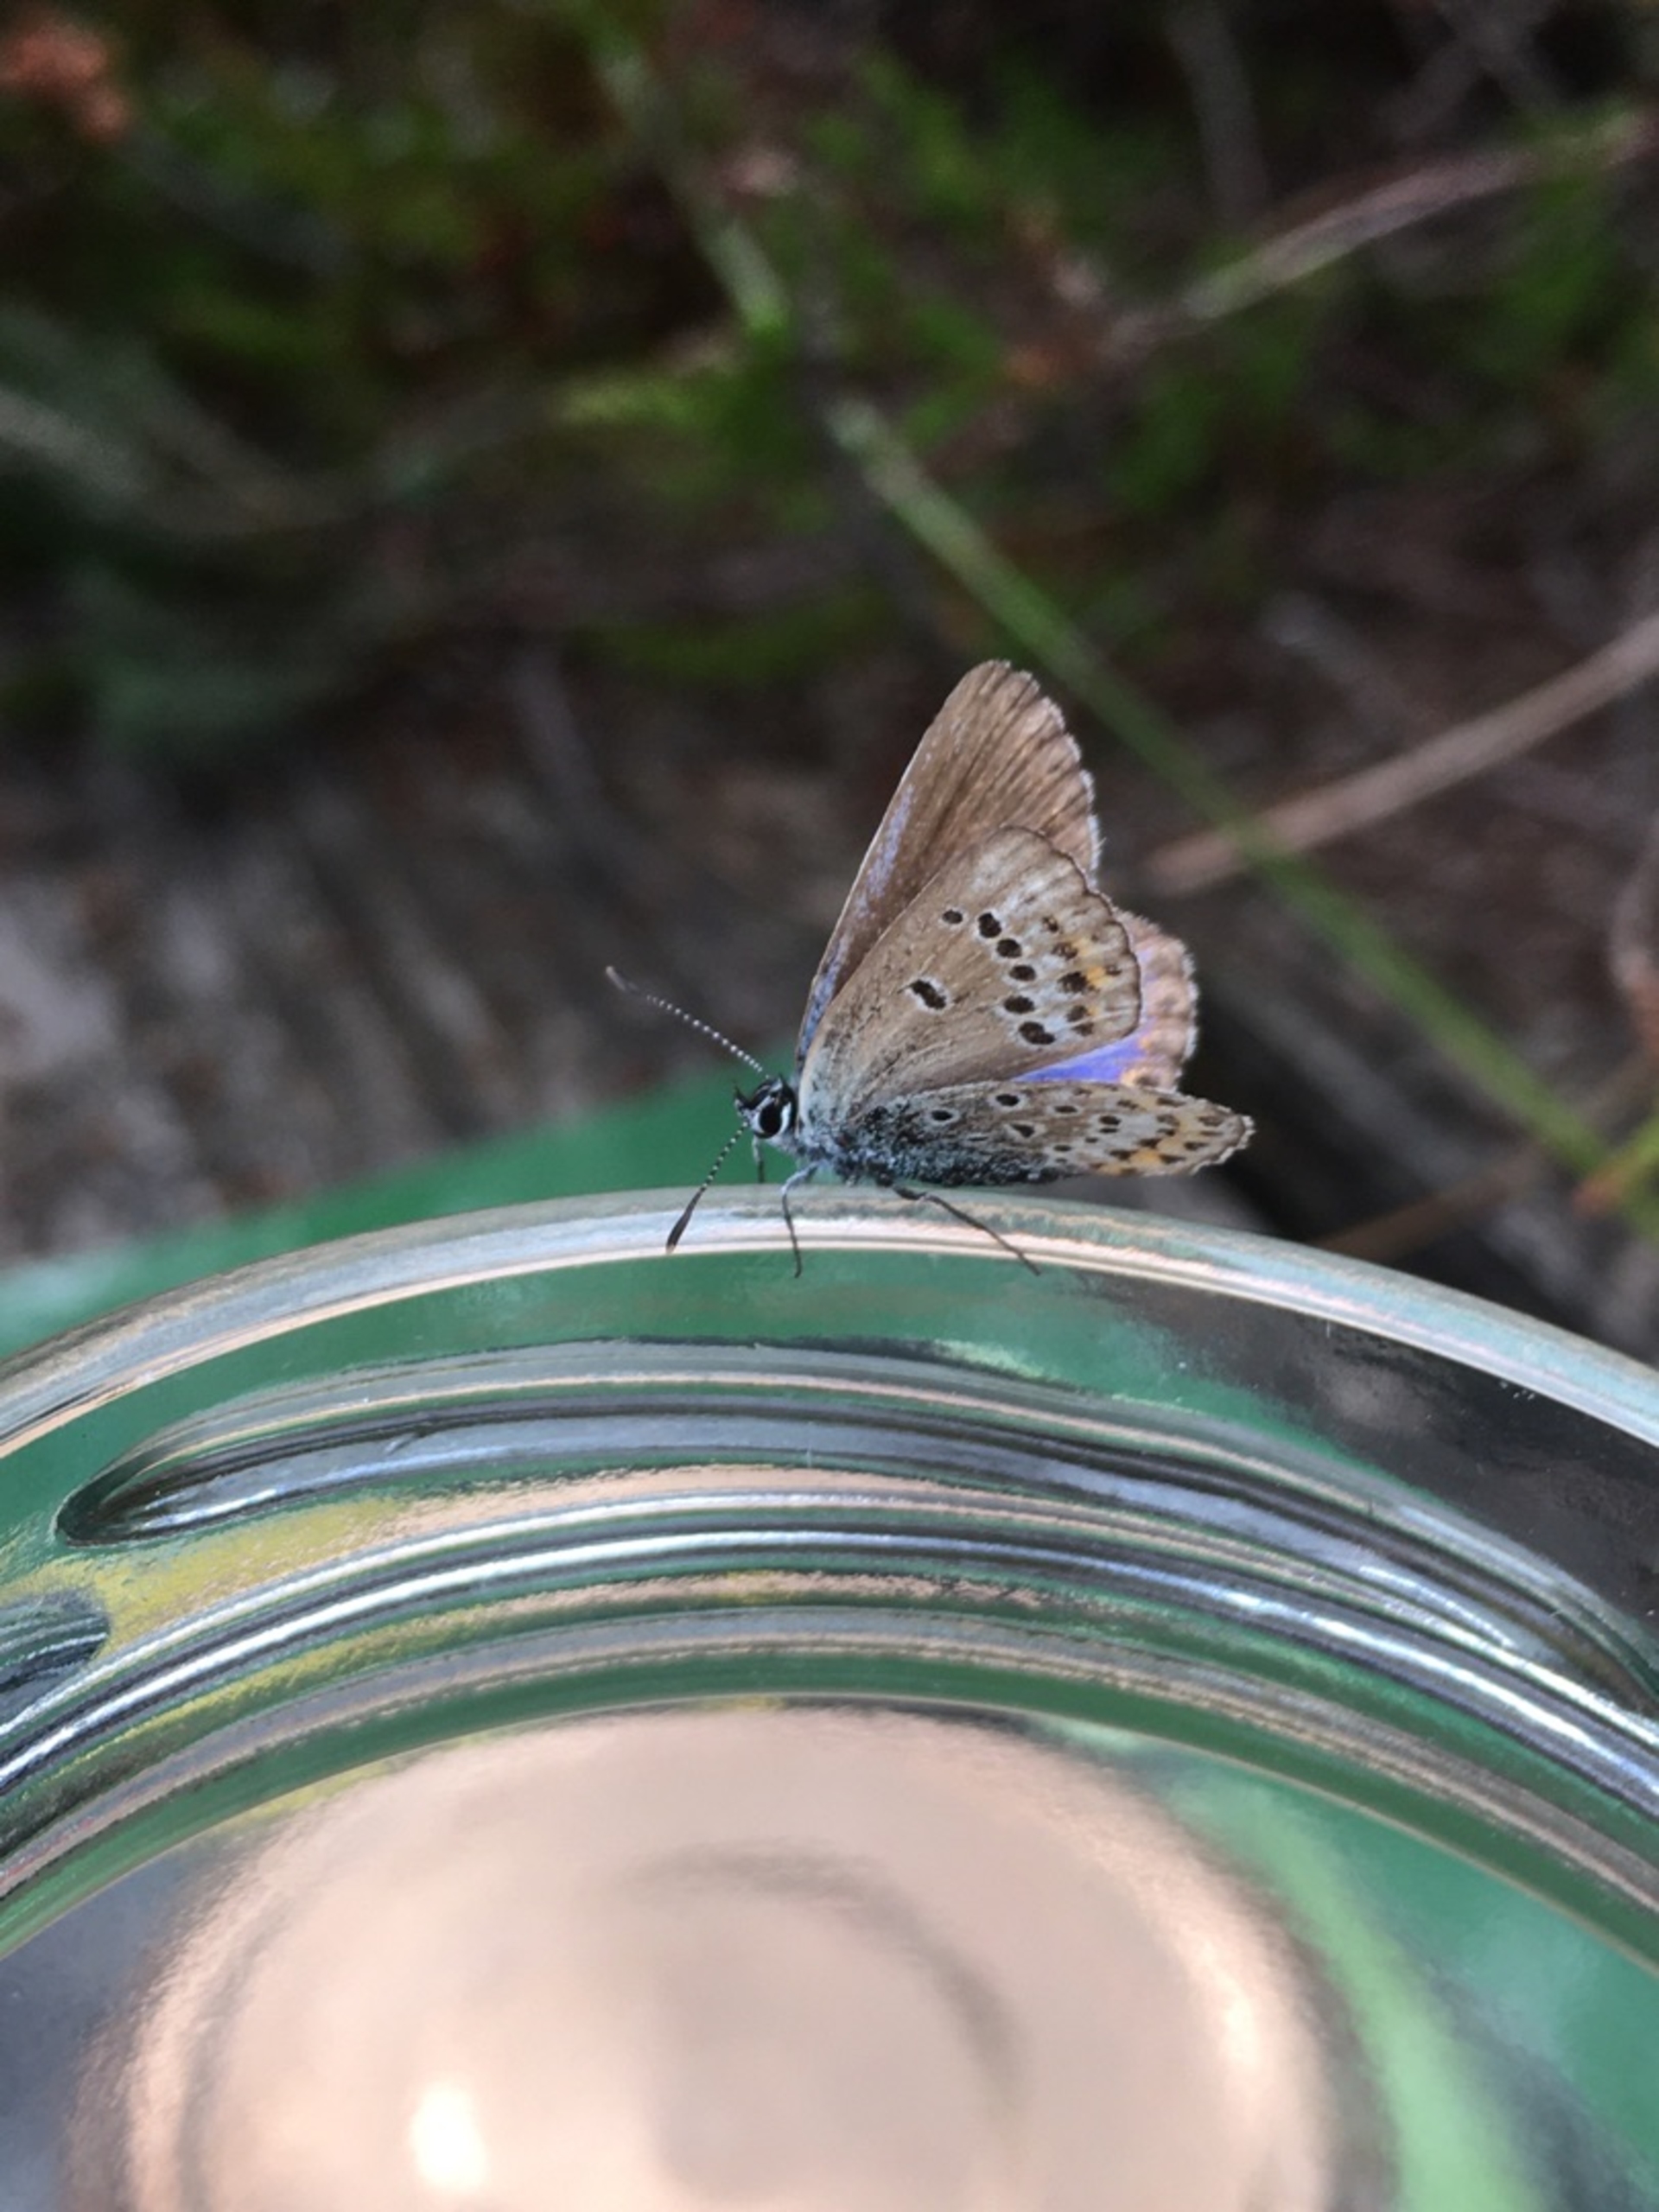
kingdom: Animalia
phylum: Arthropoda
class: Insecta
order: Lepidoptera
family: Lycaenidae
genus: Lycaeides
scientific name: Lycaeides idas
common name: Foranderlig blåfugl
